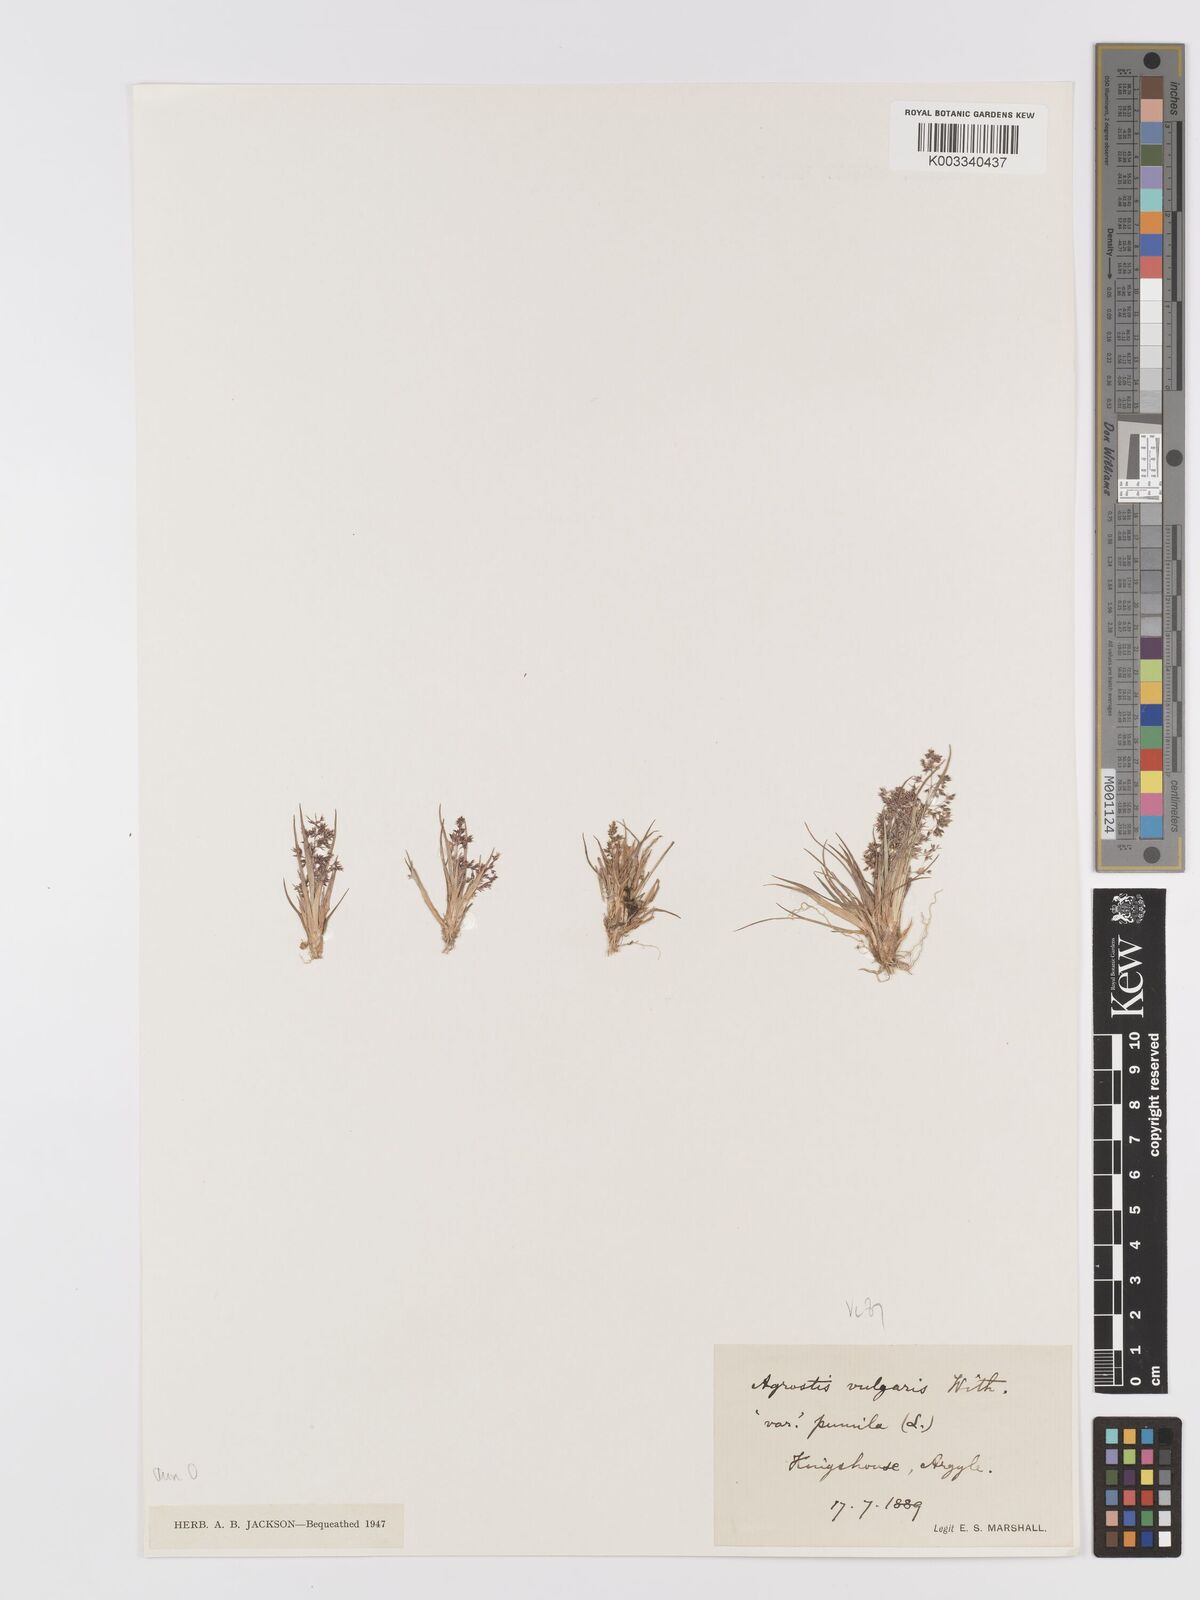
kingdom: Plantae
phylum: Tracheophyta
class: Liliopsida
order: Poales
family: Poaceae
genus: Agrostis
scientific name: Agrostis capillaris
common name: Colonial bentgrass
